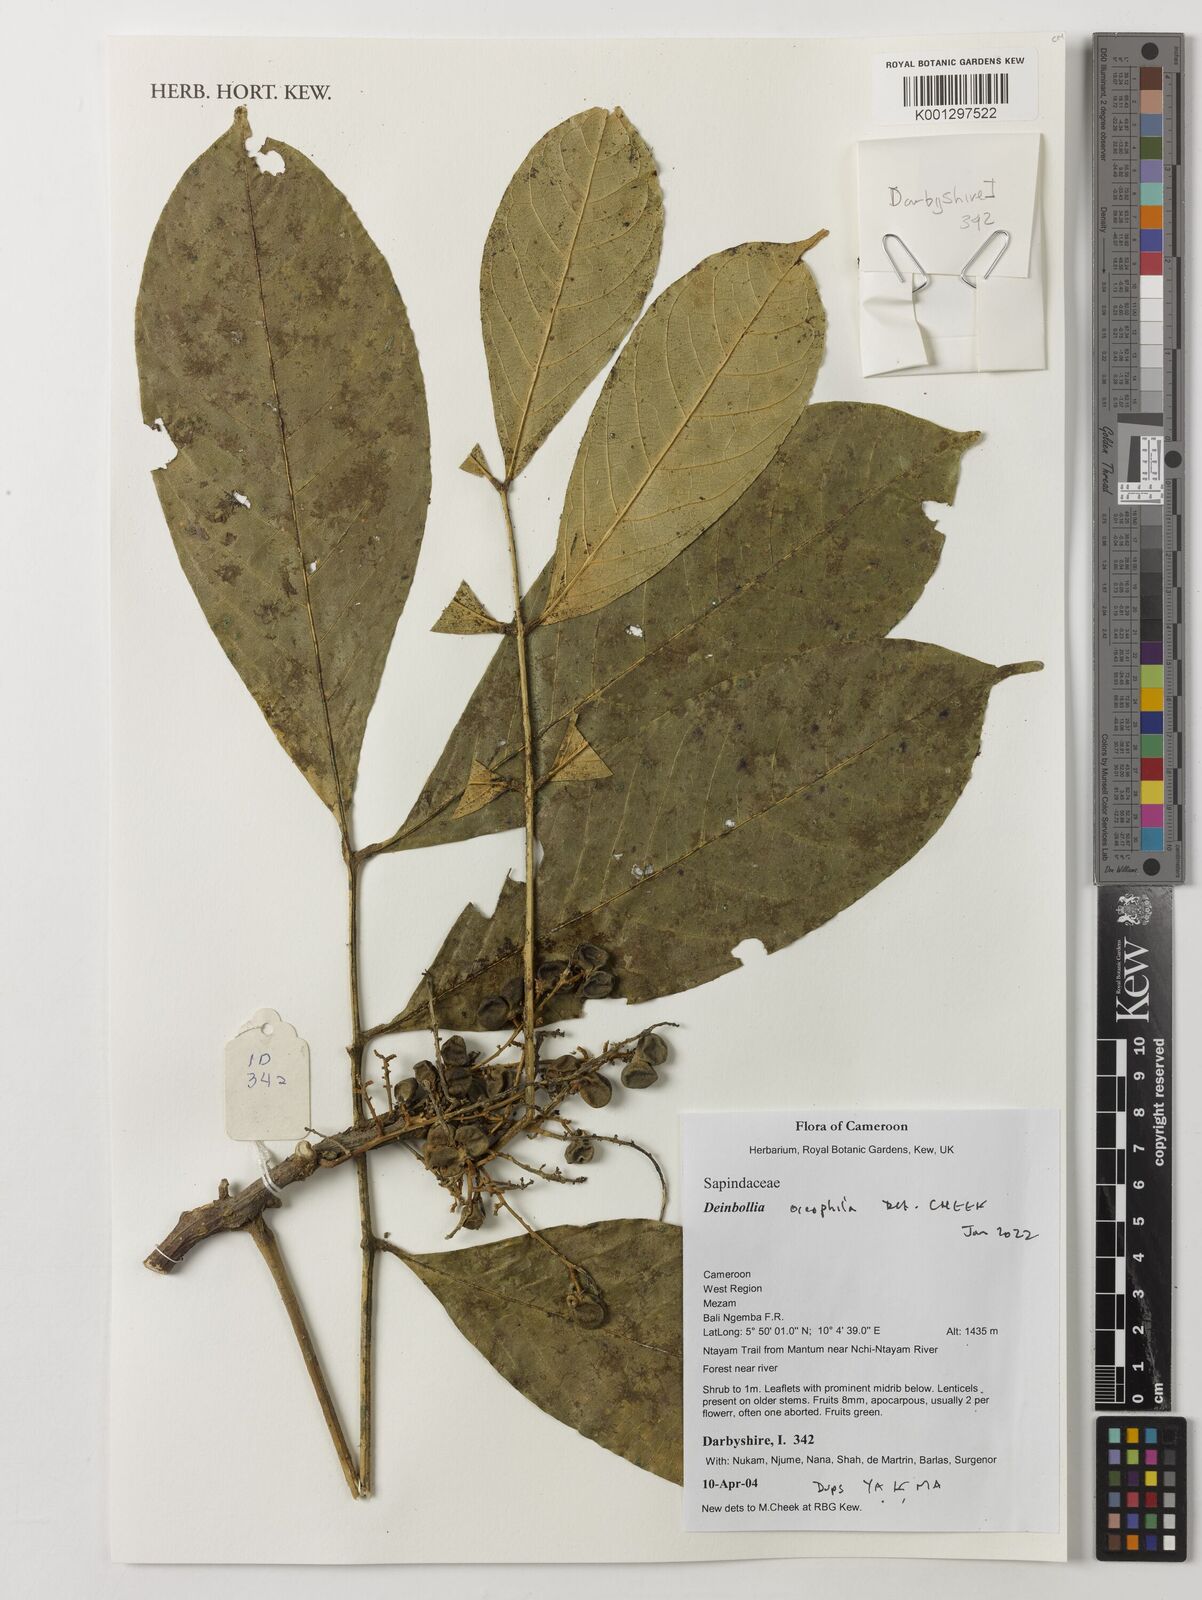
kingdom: Plantae
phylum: Tracheophyta
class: Magnoliopsida
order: Sapindales
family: Sapindaceae
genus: Deinbollia
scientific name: Deinbollia oreophila
